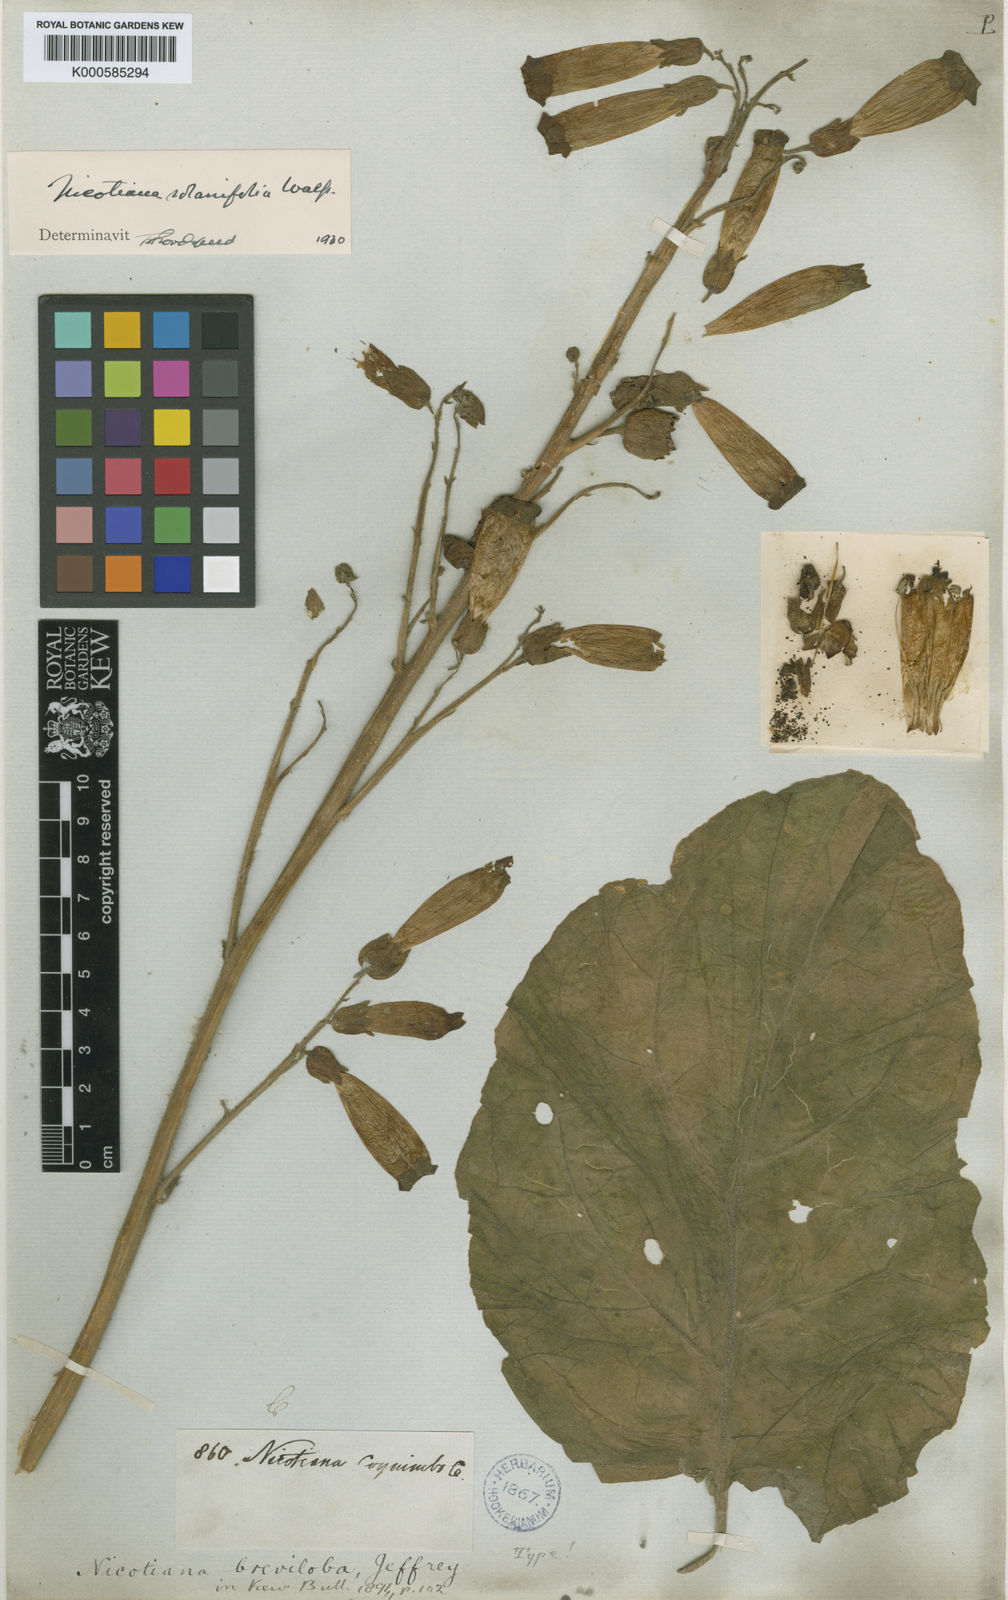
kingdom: Plantae
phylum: Tracheophyta
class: Magnoliopsida
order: Solanales
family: Solanaceae
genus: Nicotiana
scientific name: Nicotiana solanifolia
